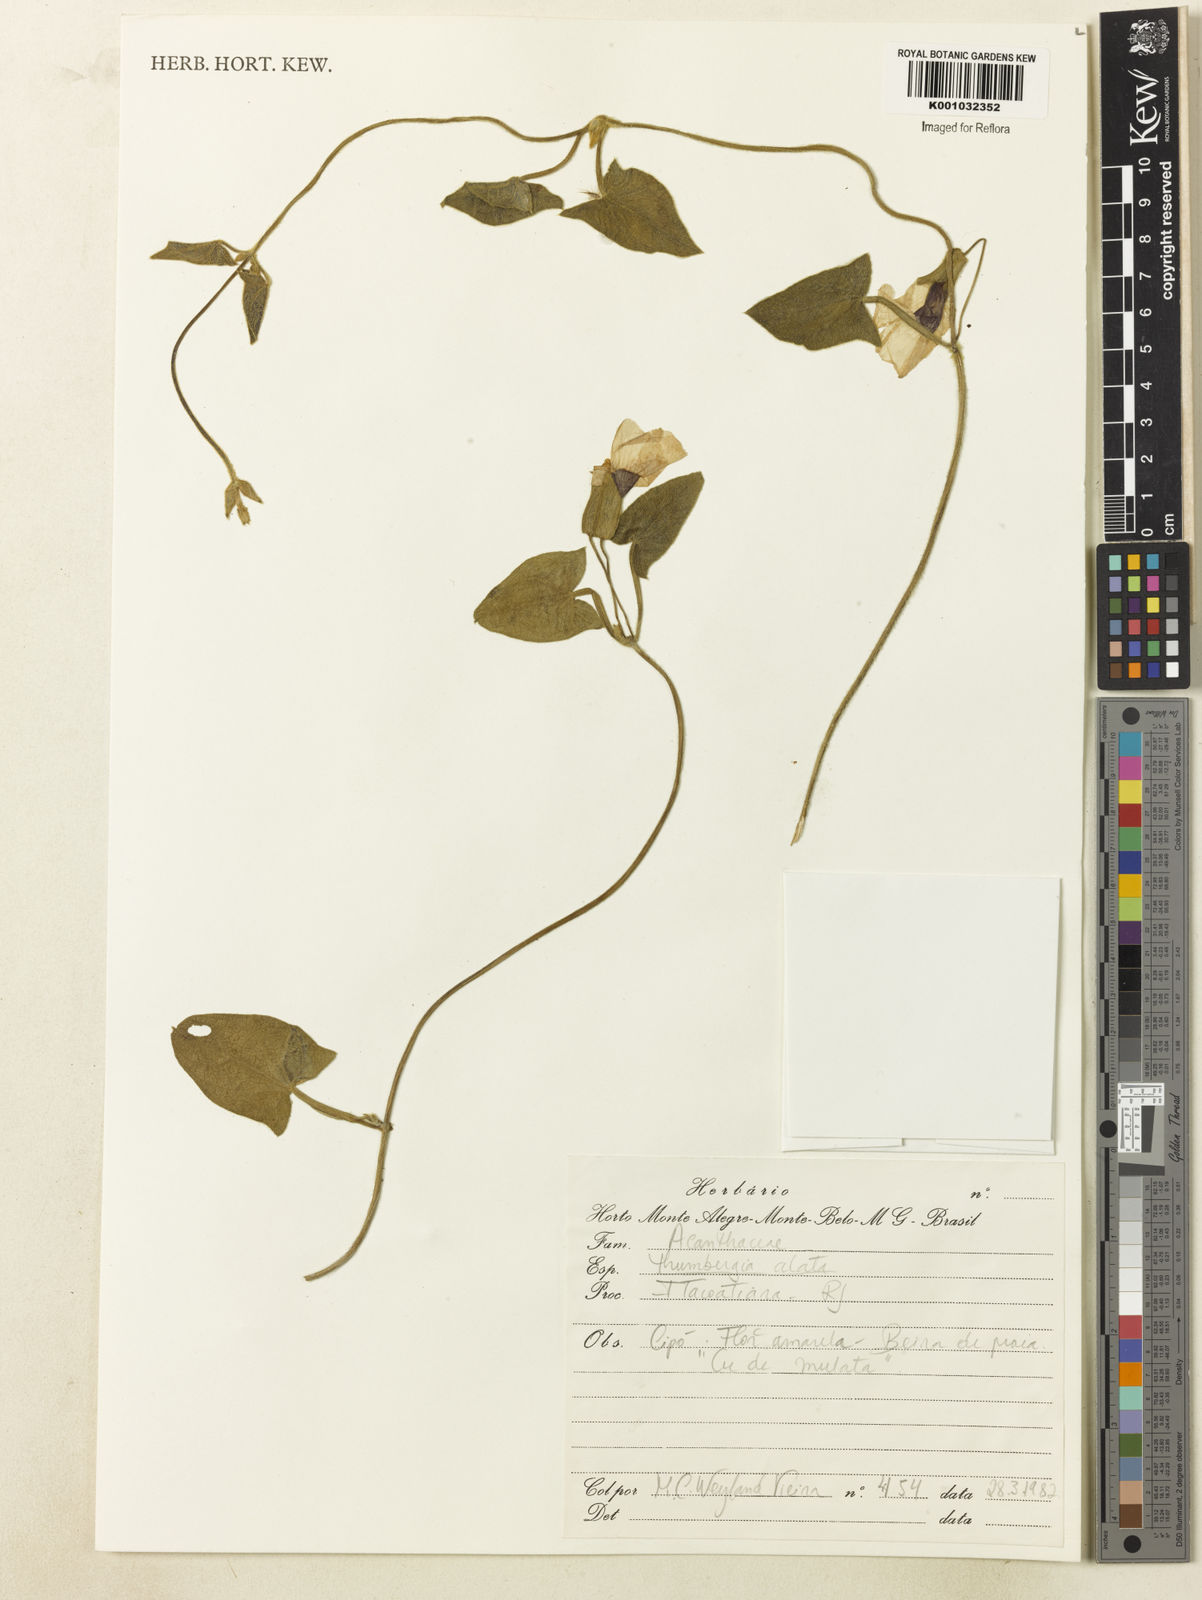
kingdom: Plantae
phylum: Tracheophyta
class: Magnoliopsida
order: Lamiales
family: Acanthaceae
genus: Thunbergia
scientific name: Thunbergia alata
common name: Blackeyed susan vine
